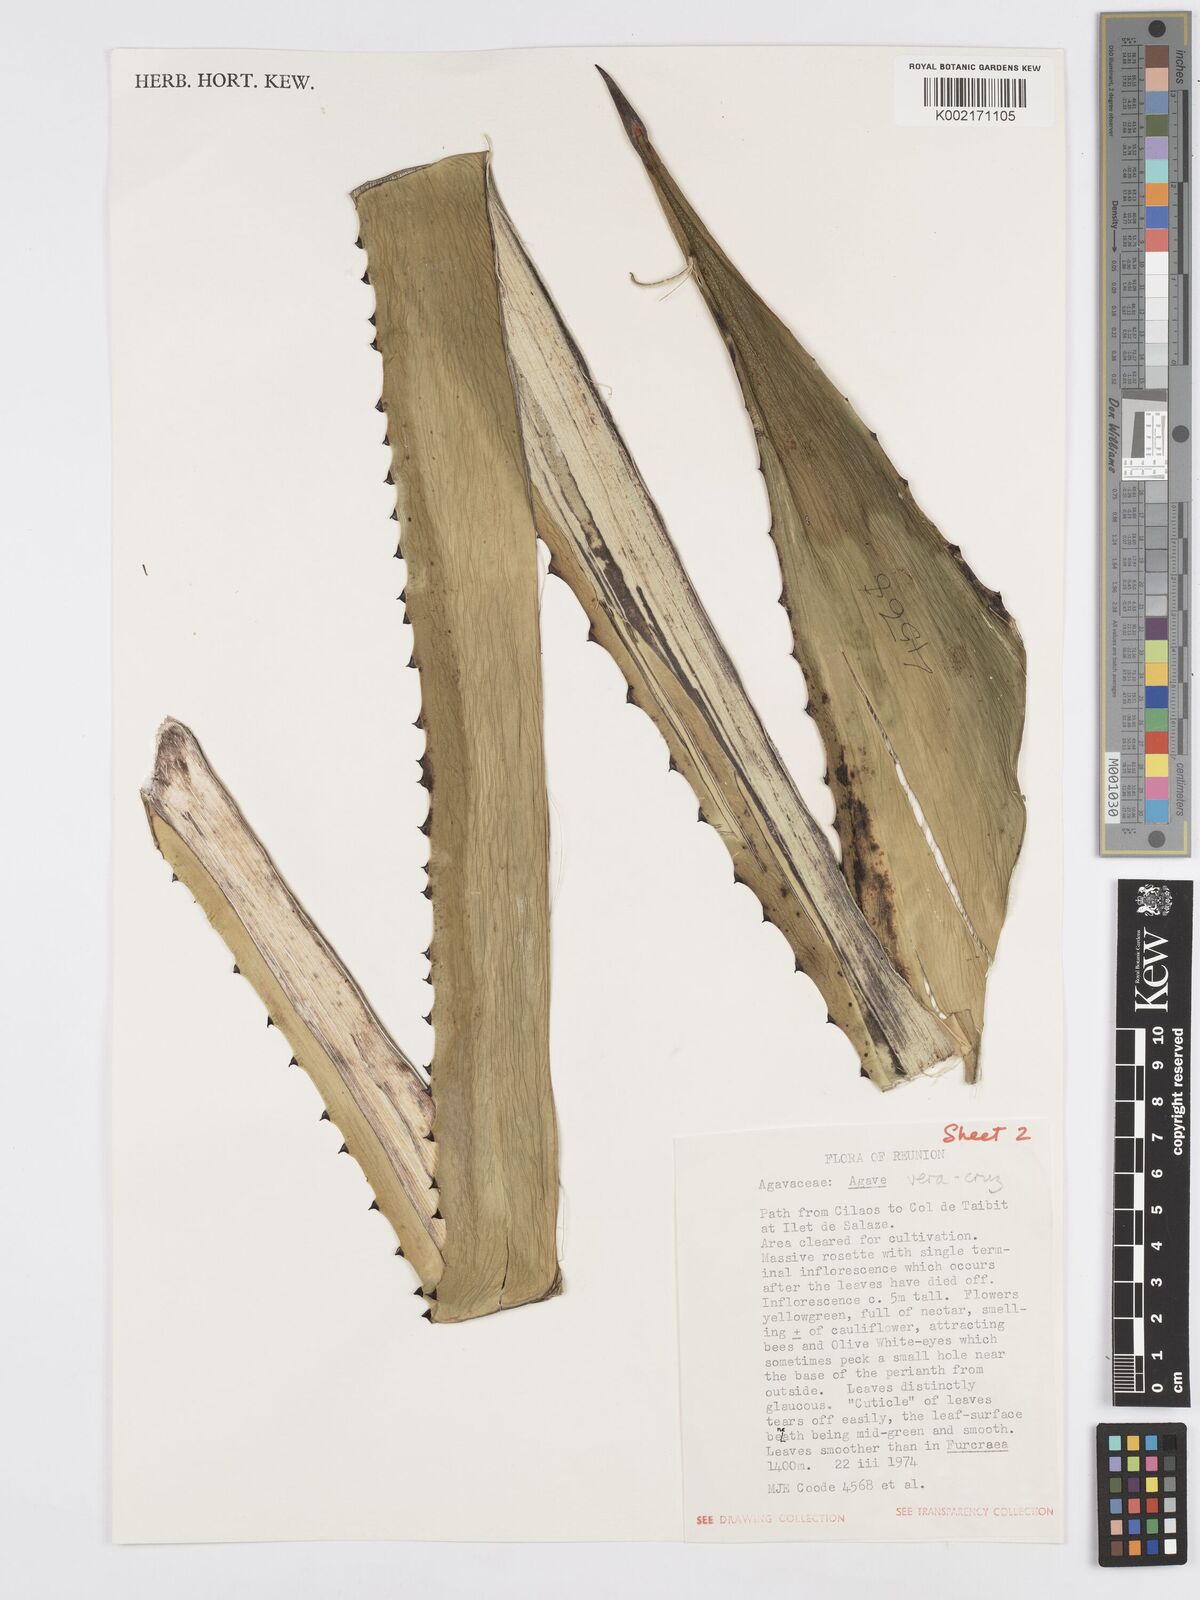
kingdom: Plantae
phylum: Tracheophyta
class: Liliopsida
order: Asparagales
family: Asparagaceae
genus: Agave
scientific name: Agave vera-cruz
